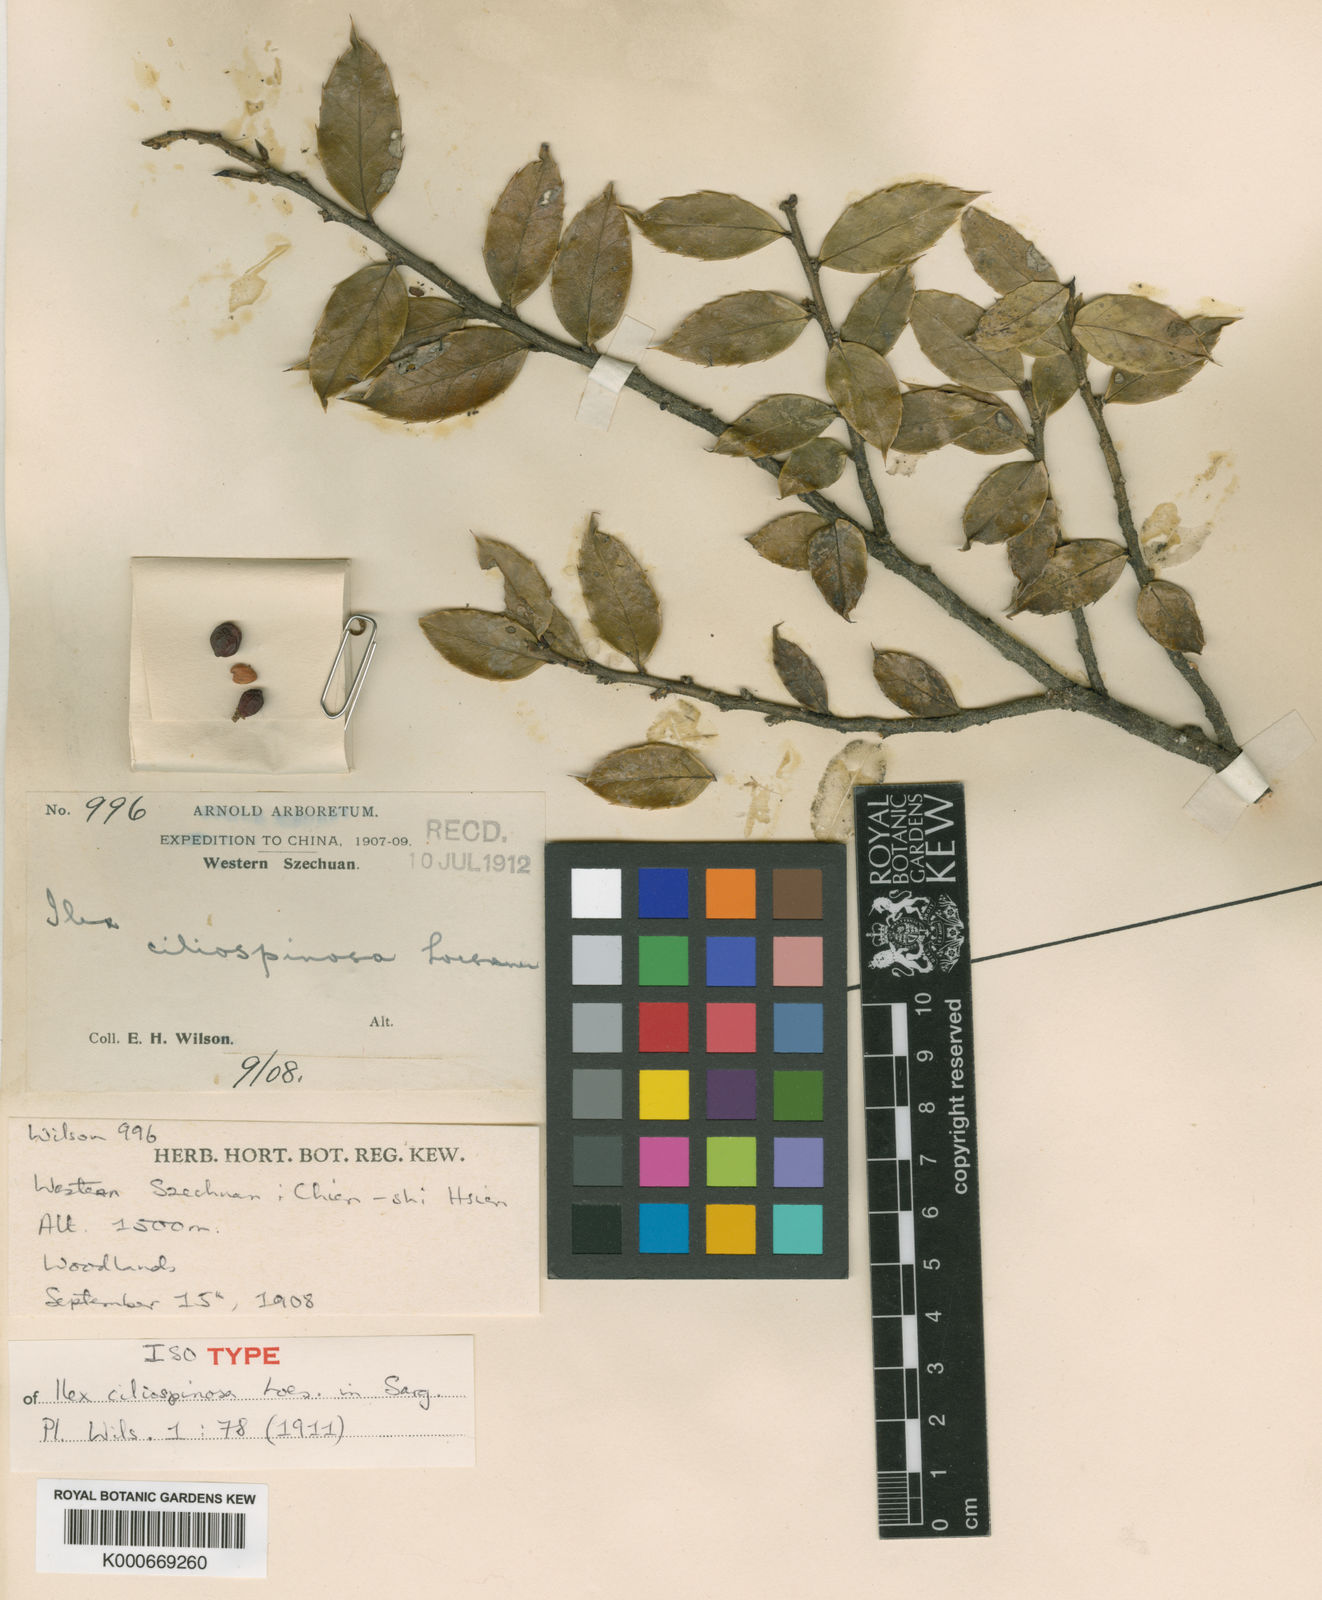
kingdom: Plantae
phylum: Tracheophyta
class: Magnoliopsida
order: Aquifoliales
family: Aquifoliaceae
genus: Ilex
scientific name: Ilex bioritsensis
